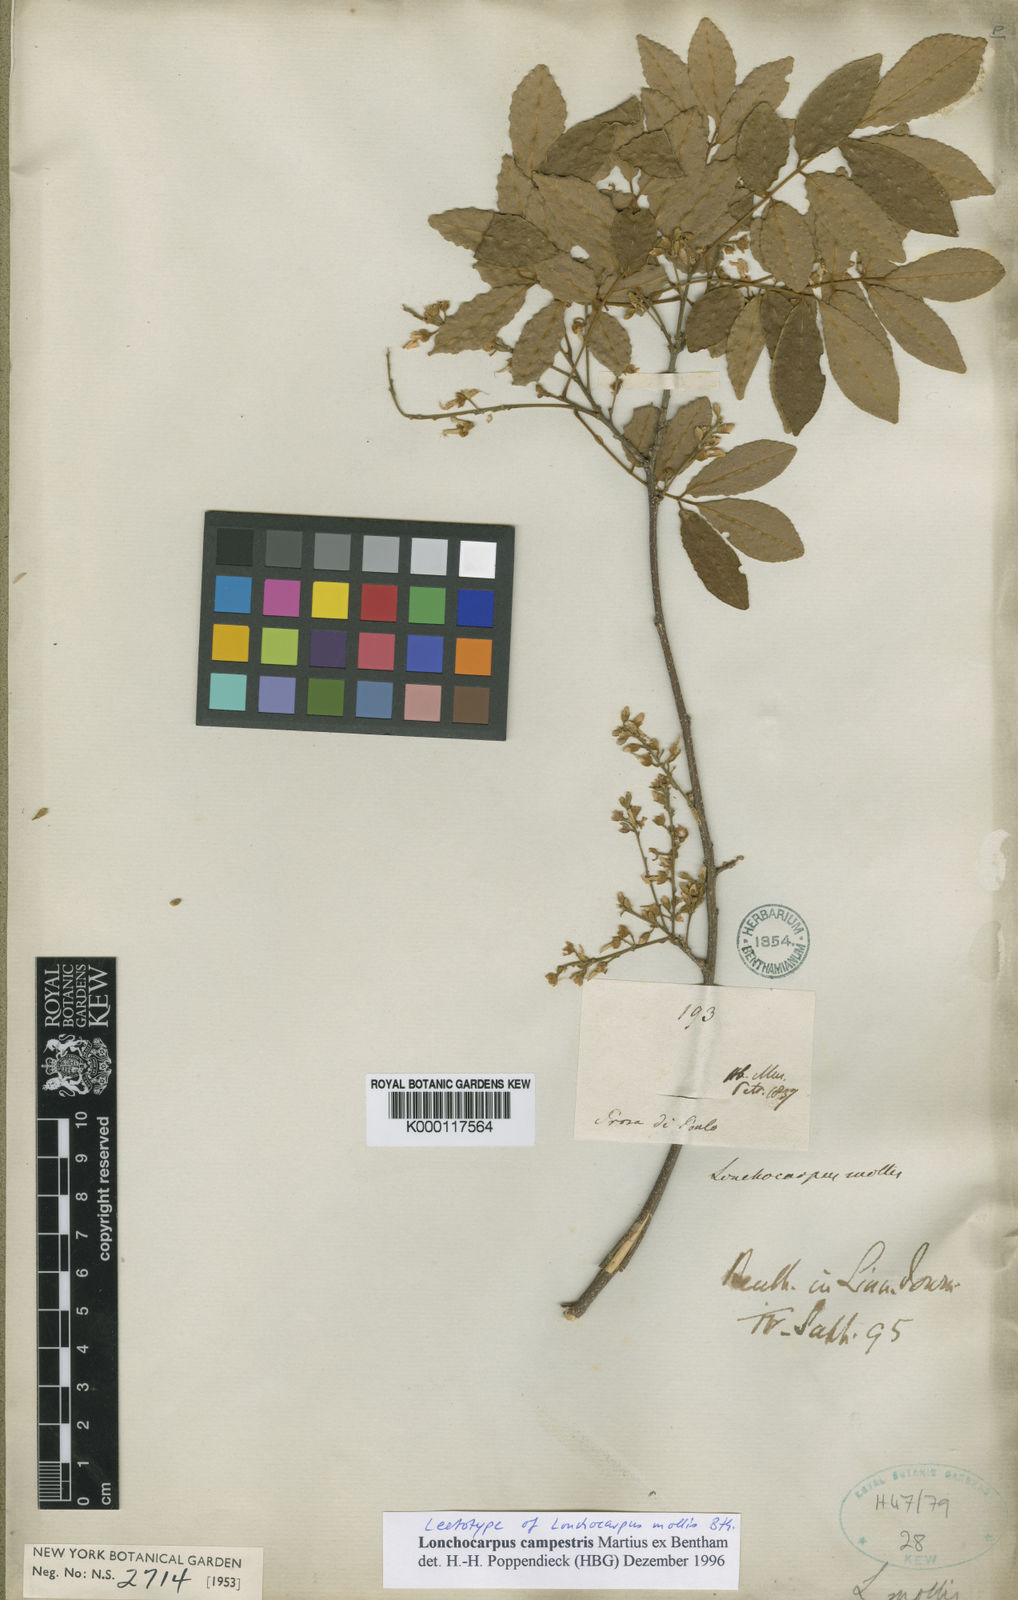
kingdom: Plantae
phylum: Tracheophyta
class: Magnoliopsida
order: Fabales
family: Fabaceae
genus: Muellera
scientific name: Muellera campestris
